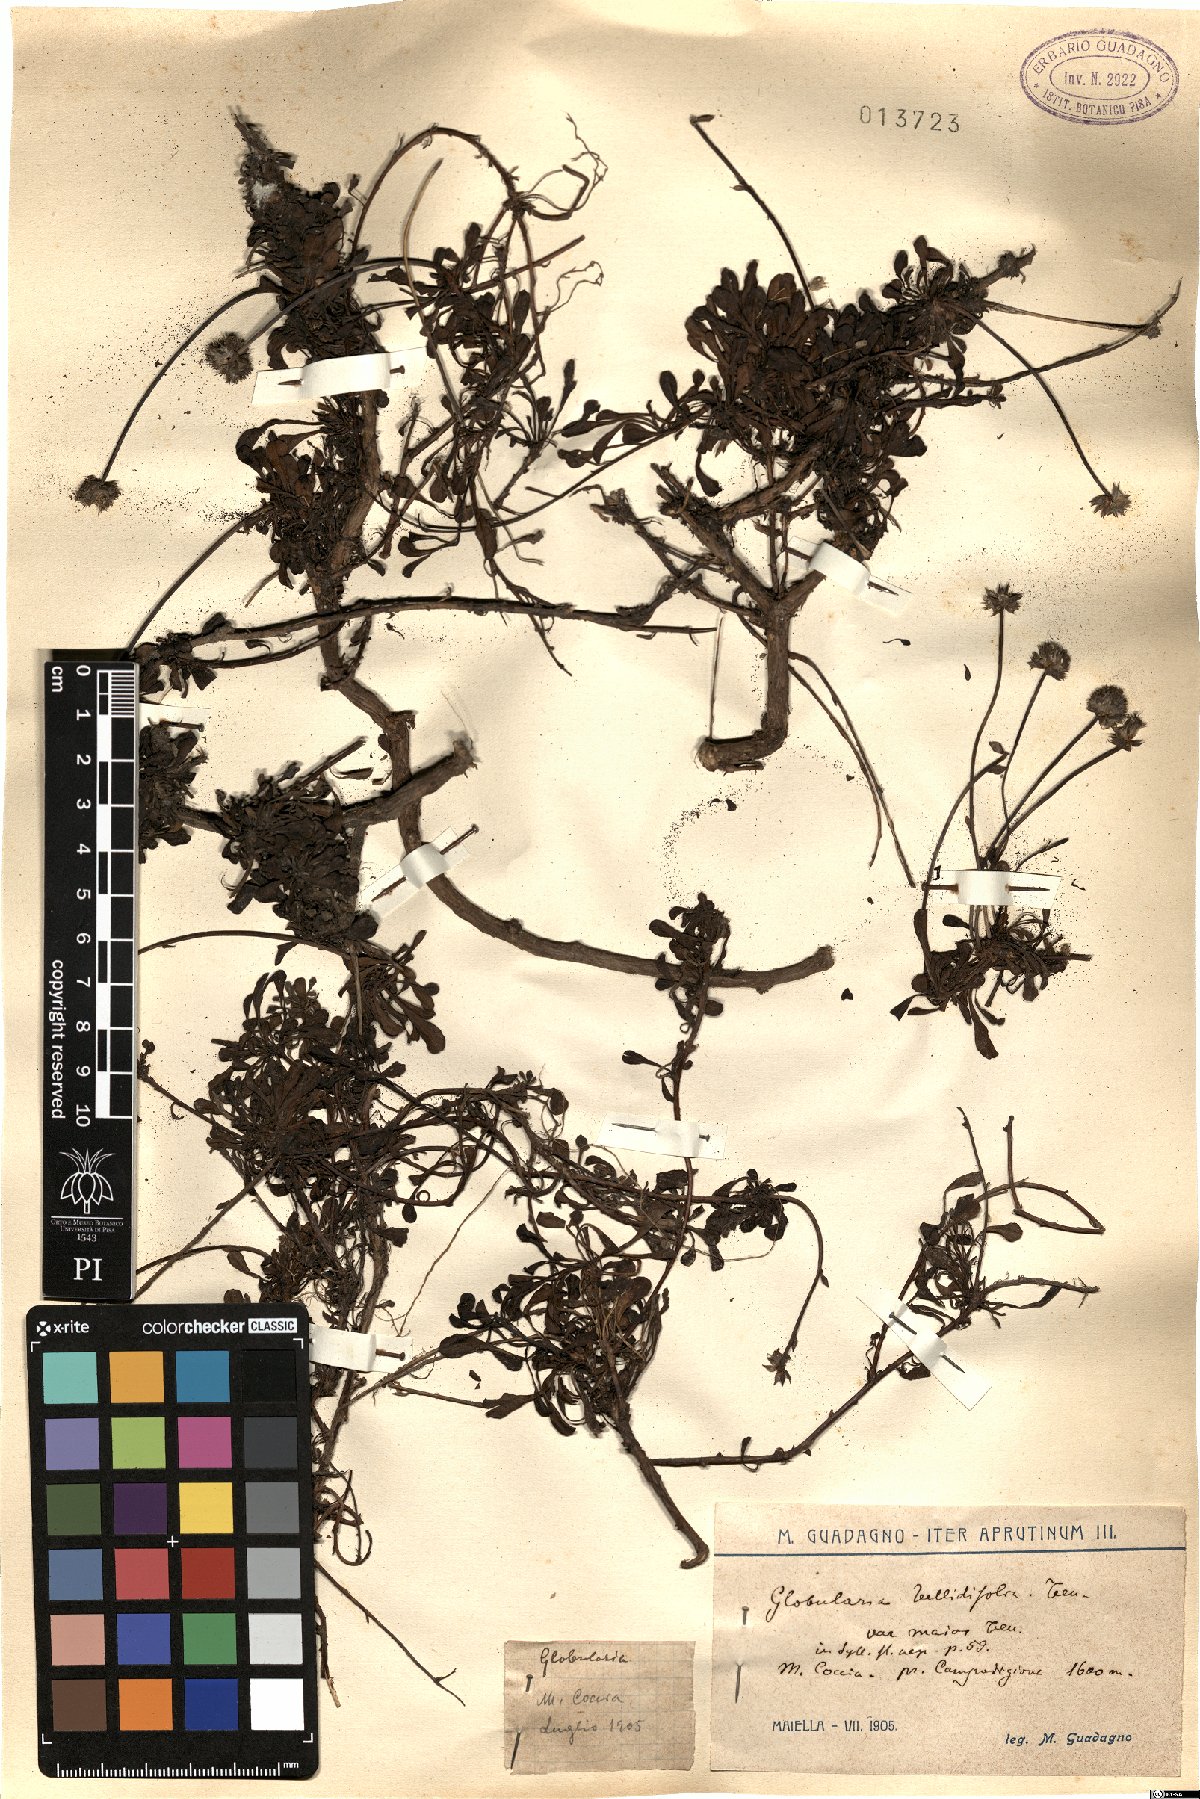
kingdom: Plantae
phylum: Tracheophyta
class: Magnoliopsida
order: Lamiales
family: Plantaginaceae
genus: Globularia
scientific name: Globularia meridionalis
